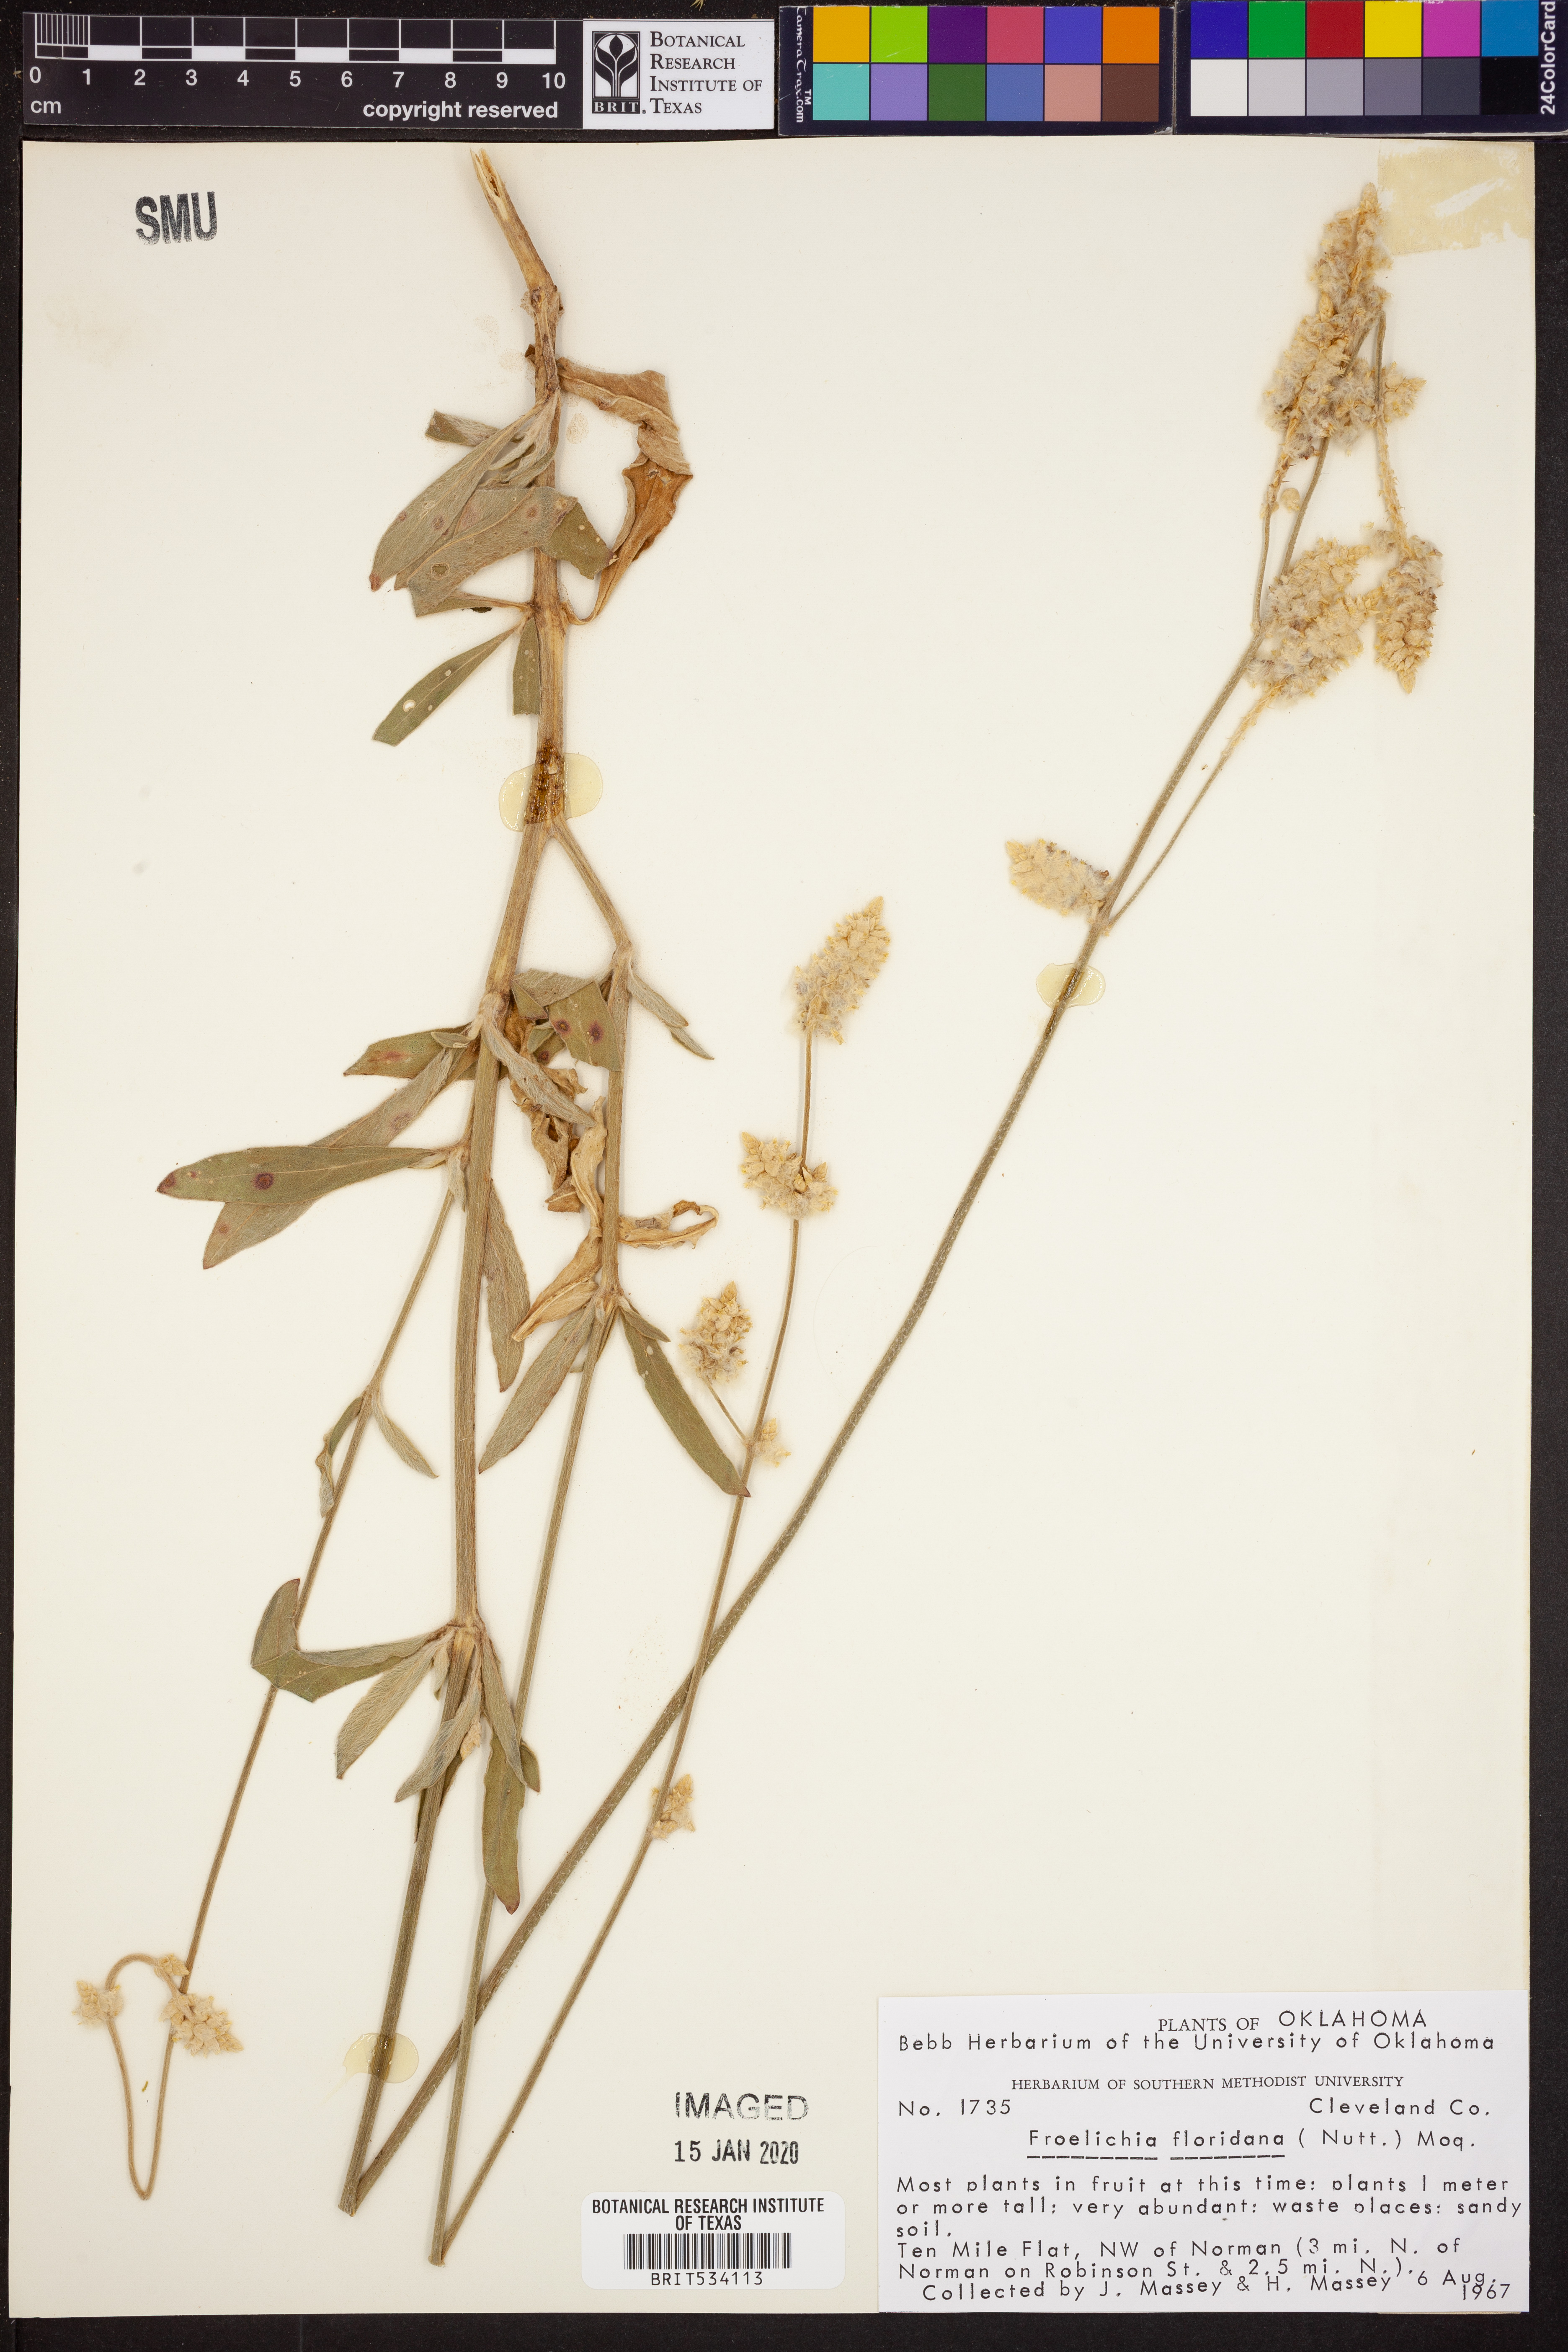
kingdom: Plantae
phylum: Tracheophyta
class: Magnoliopsida
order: Caryophyllales
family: Amaranthaceae
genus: Froelichia
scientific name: Froelichia floridana
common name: Florida snake-cotton
